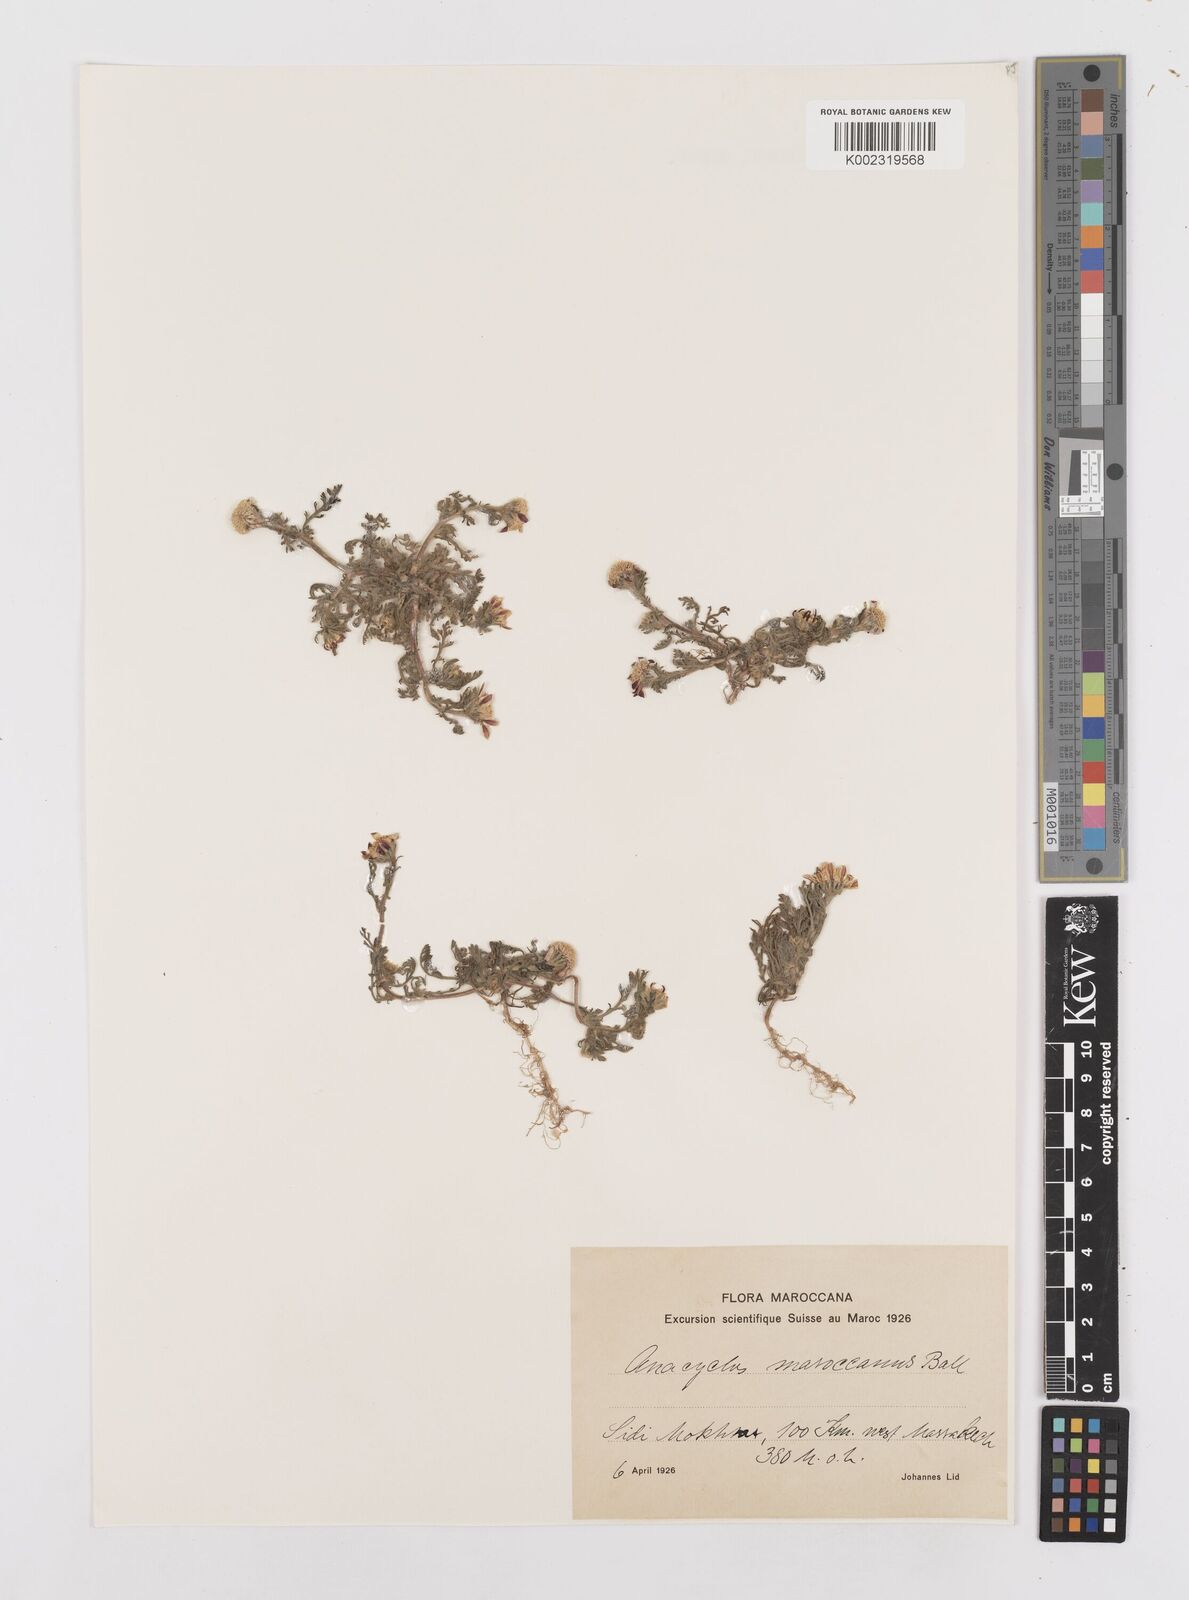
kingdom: Plantae
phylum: Tracheophyta
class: Magnoliopsida
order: Asterales
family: Asteraceae
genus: Anacyclus
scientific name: Anacyclus maroccanus
